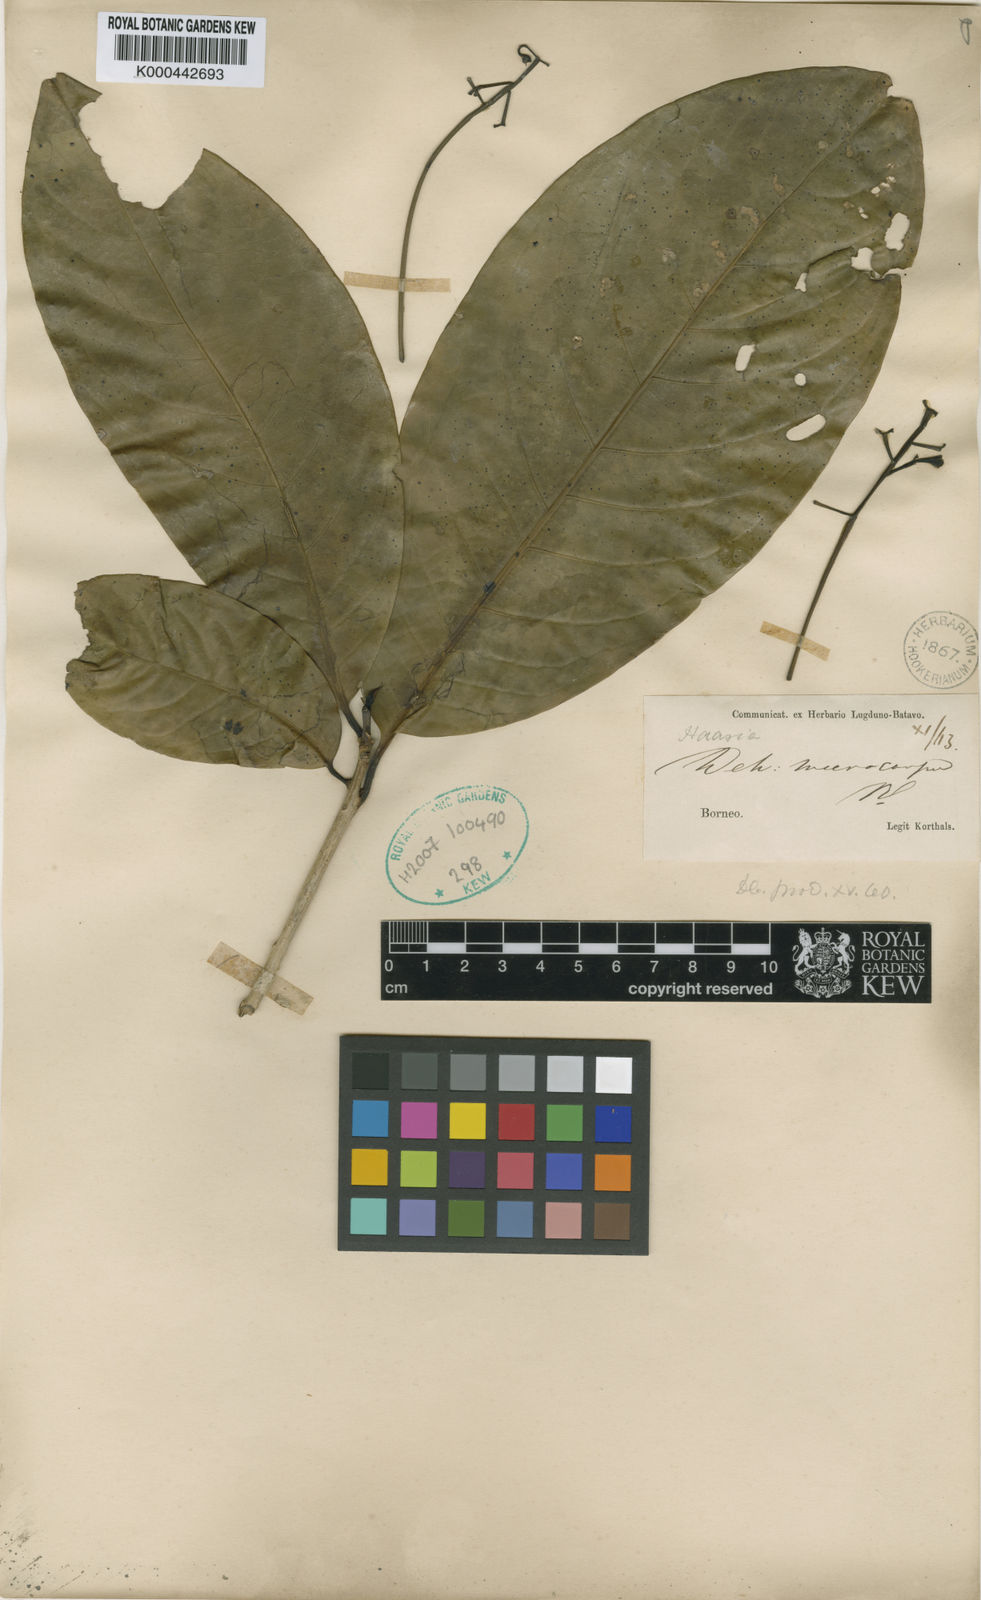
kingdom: Plantae
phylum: Tracheophyta
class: Magnoliopsida
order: Laurales
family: Lauraceae
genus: Dehaasia
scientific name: Dehaasia
